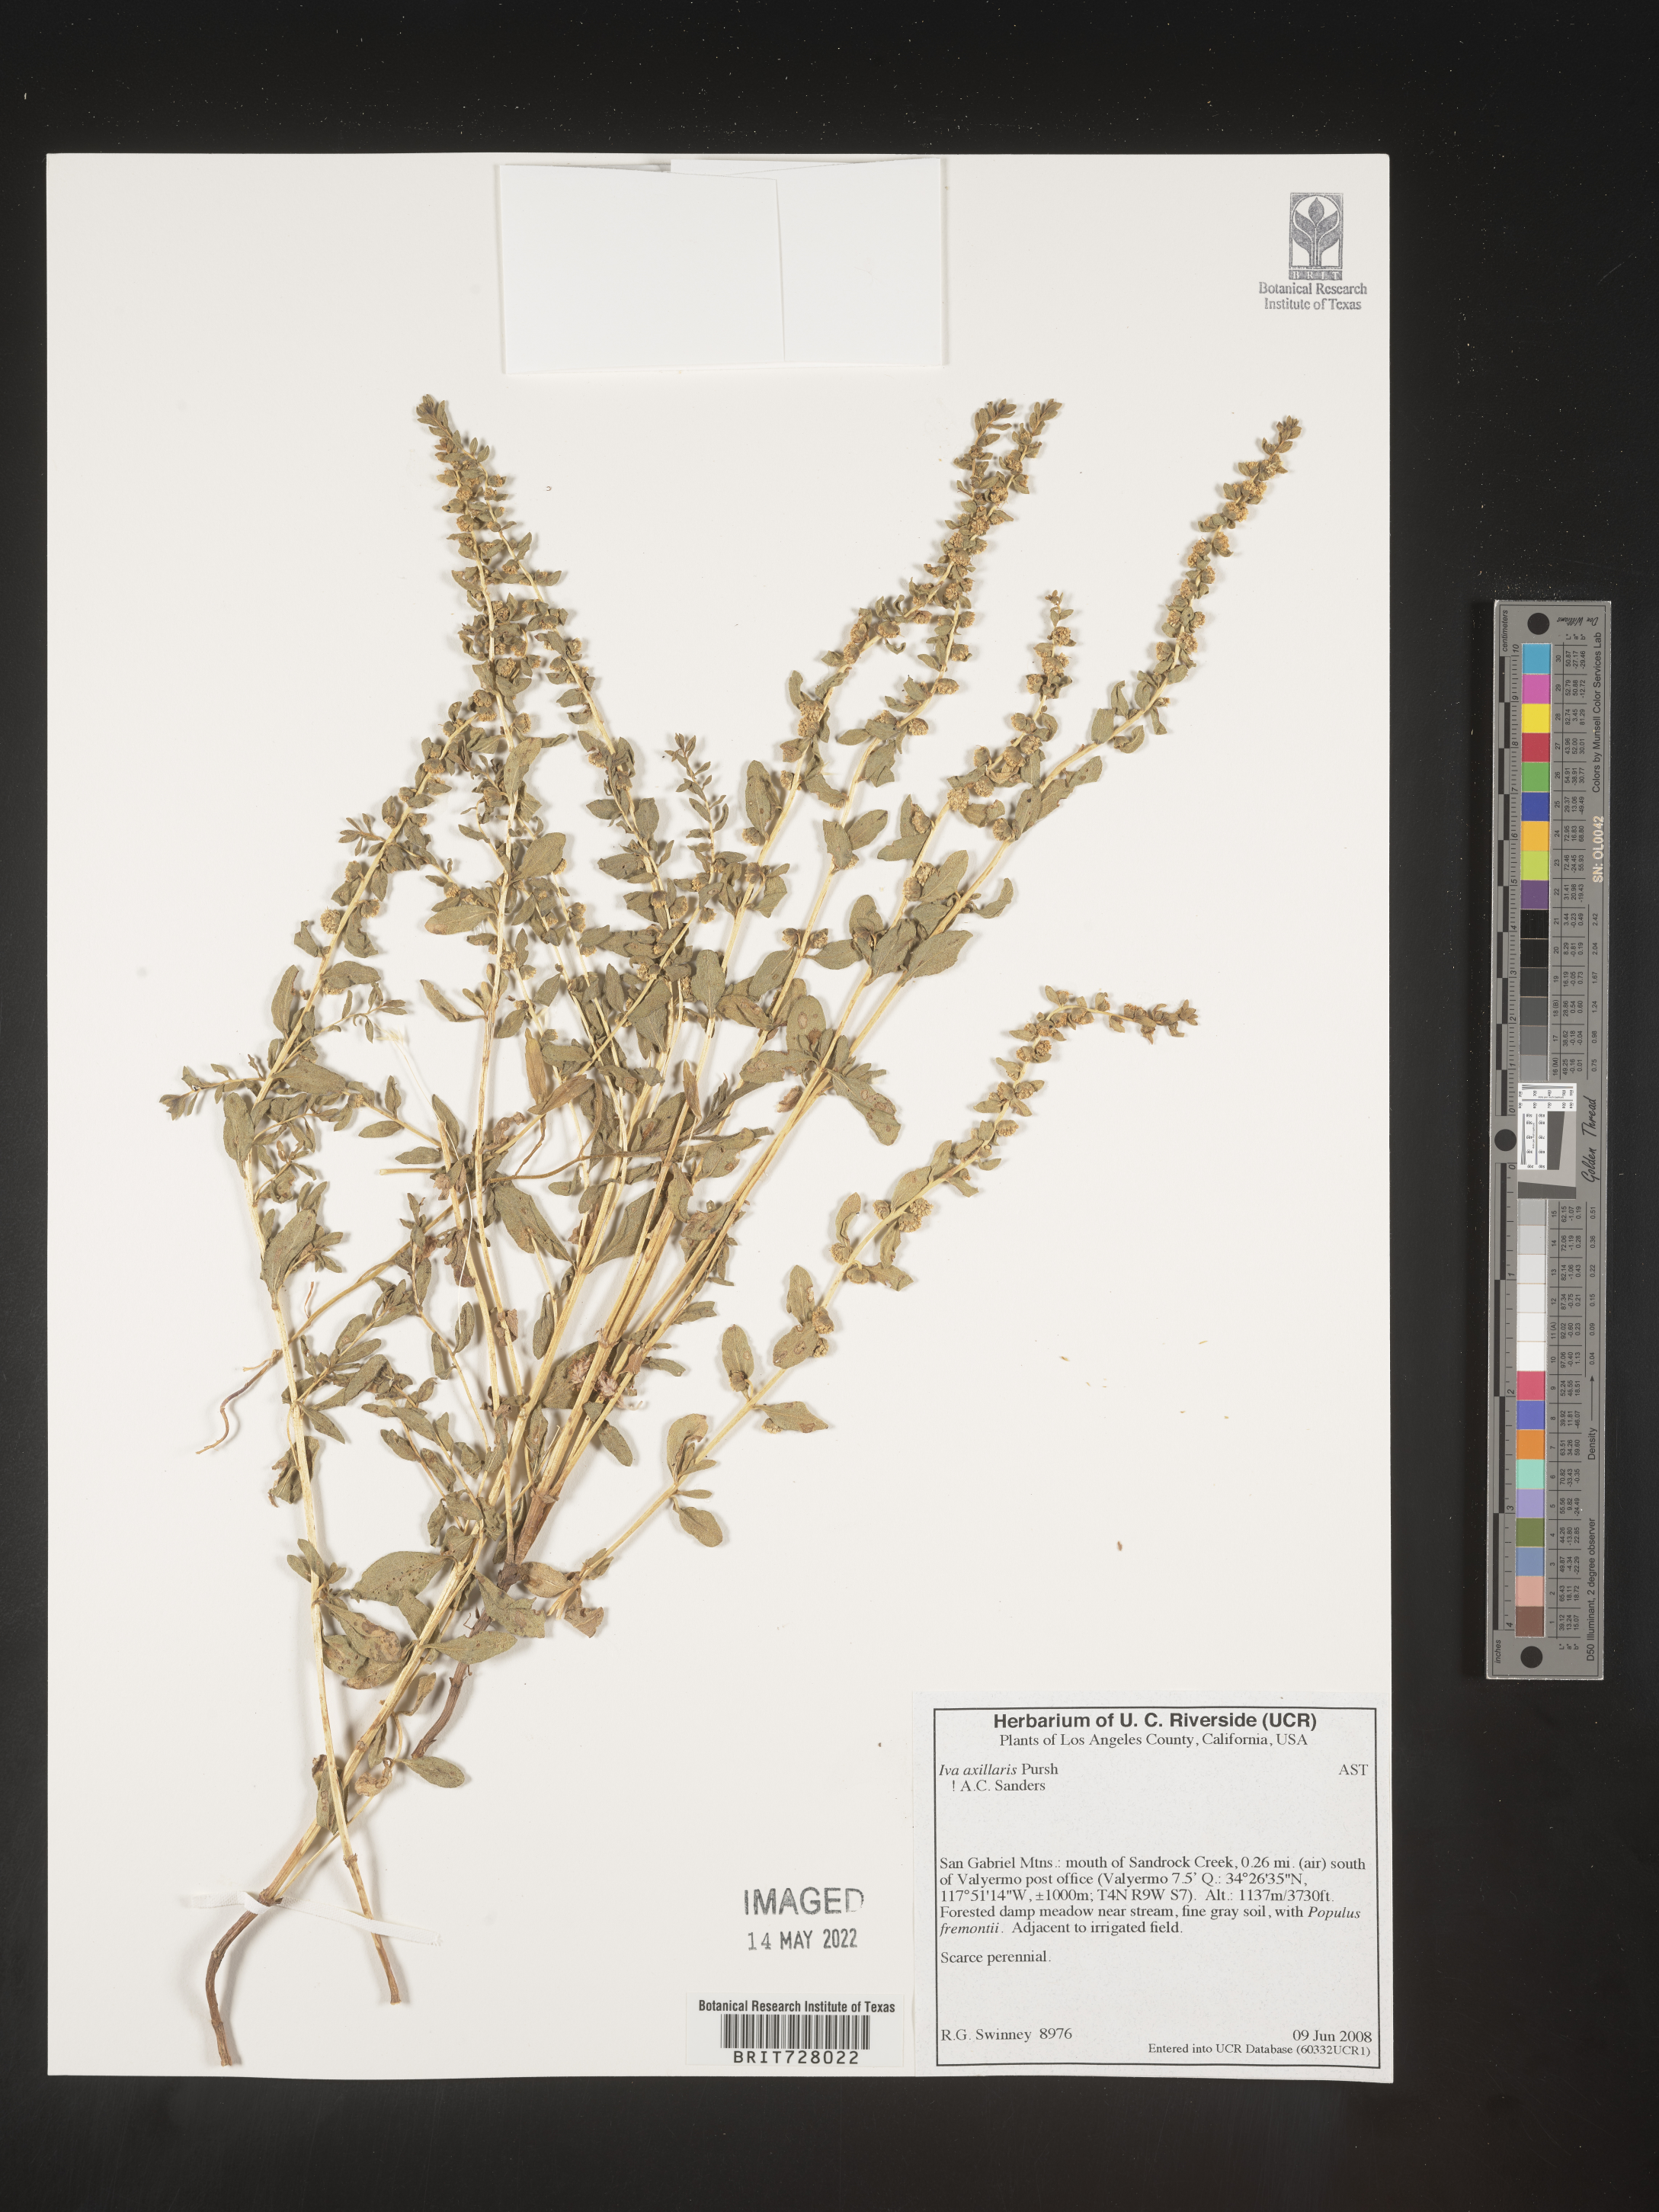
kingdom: Plantae
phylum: Tracheophyta
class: Magnoliopsida
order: Asterales
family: Asteraceae
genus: Iva
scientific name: Iva axillaris
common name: Poverty sumpweed
